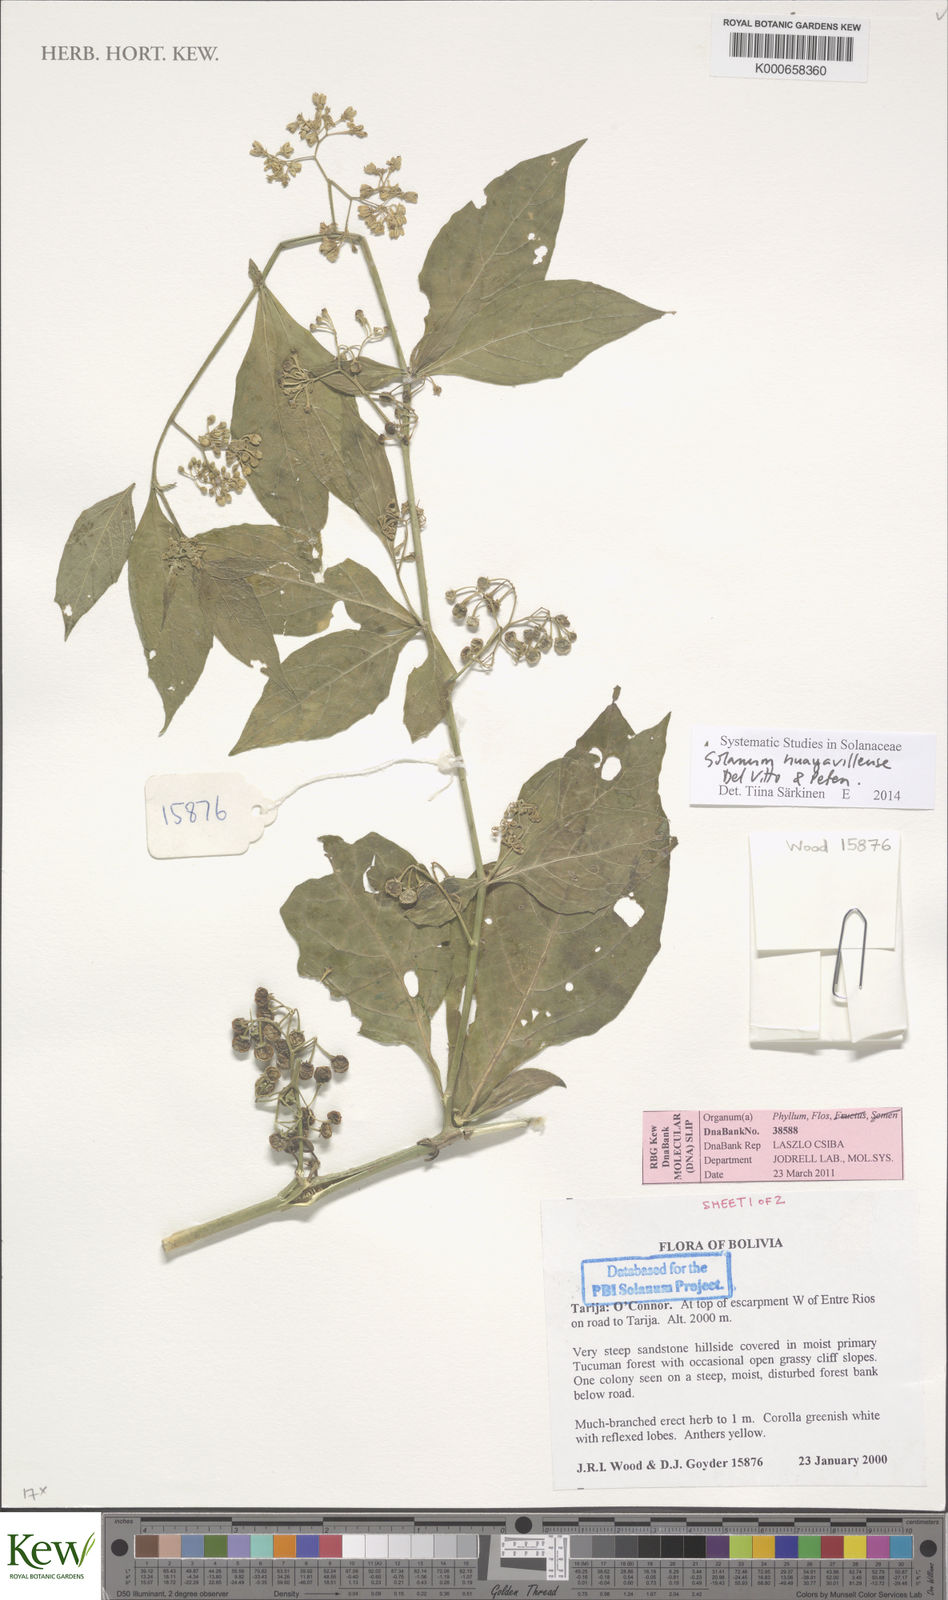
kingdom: Plantae
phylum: Tracheophyta
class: Magnoliopsida
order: Solanales
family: Solanaceae
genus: Solanum
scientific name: Solanum
